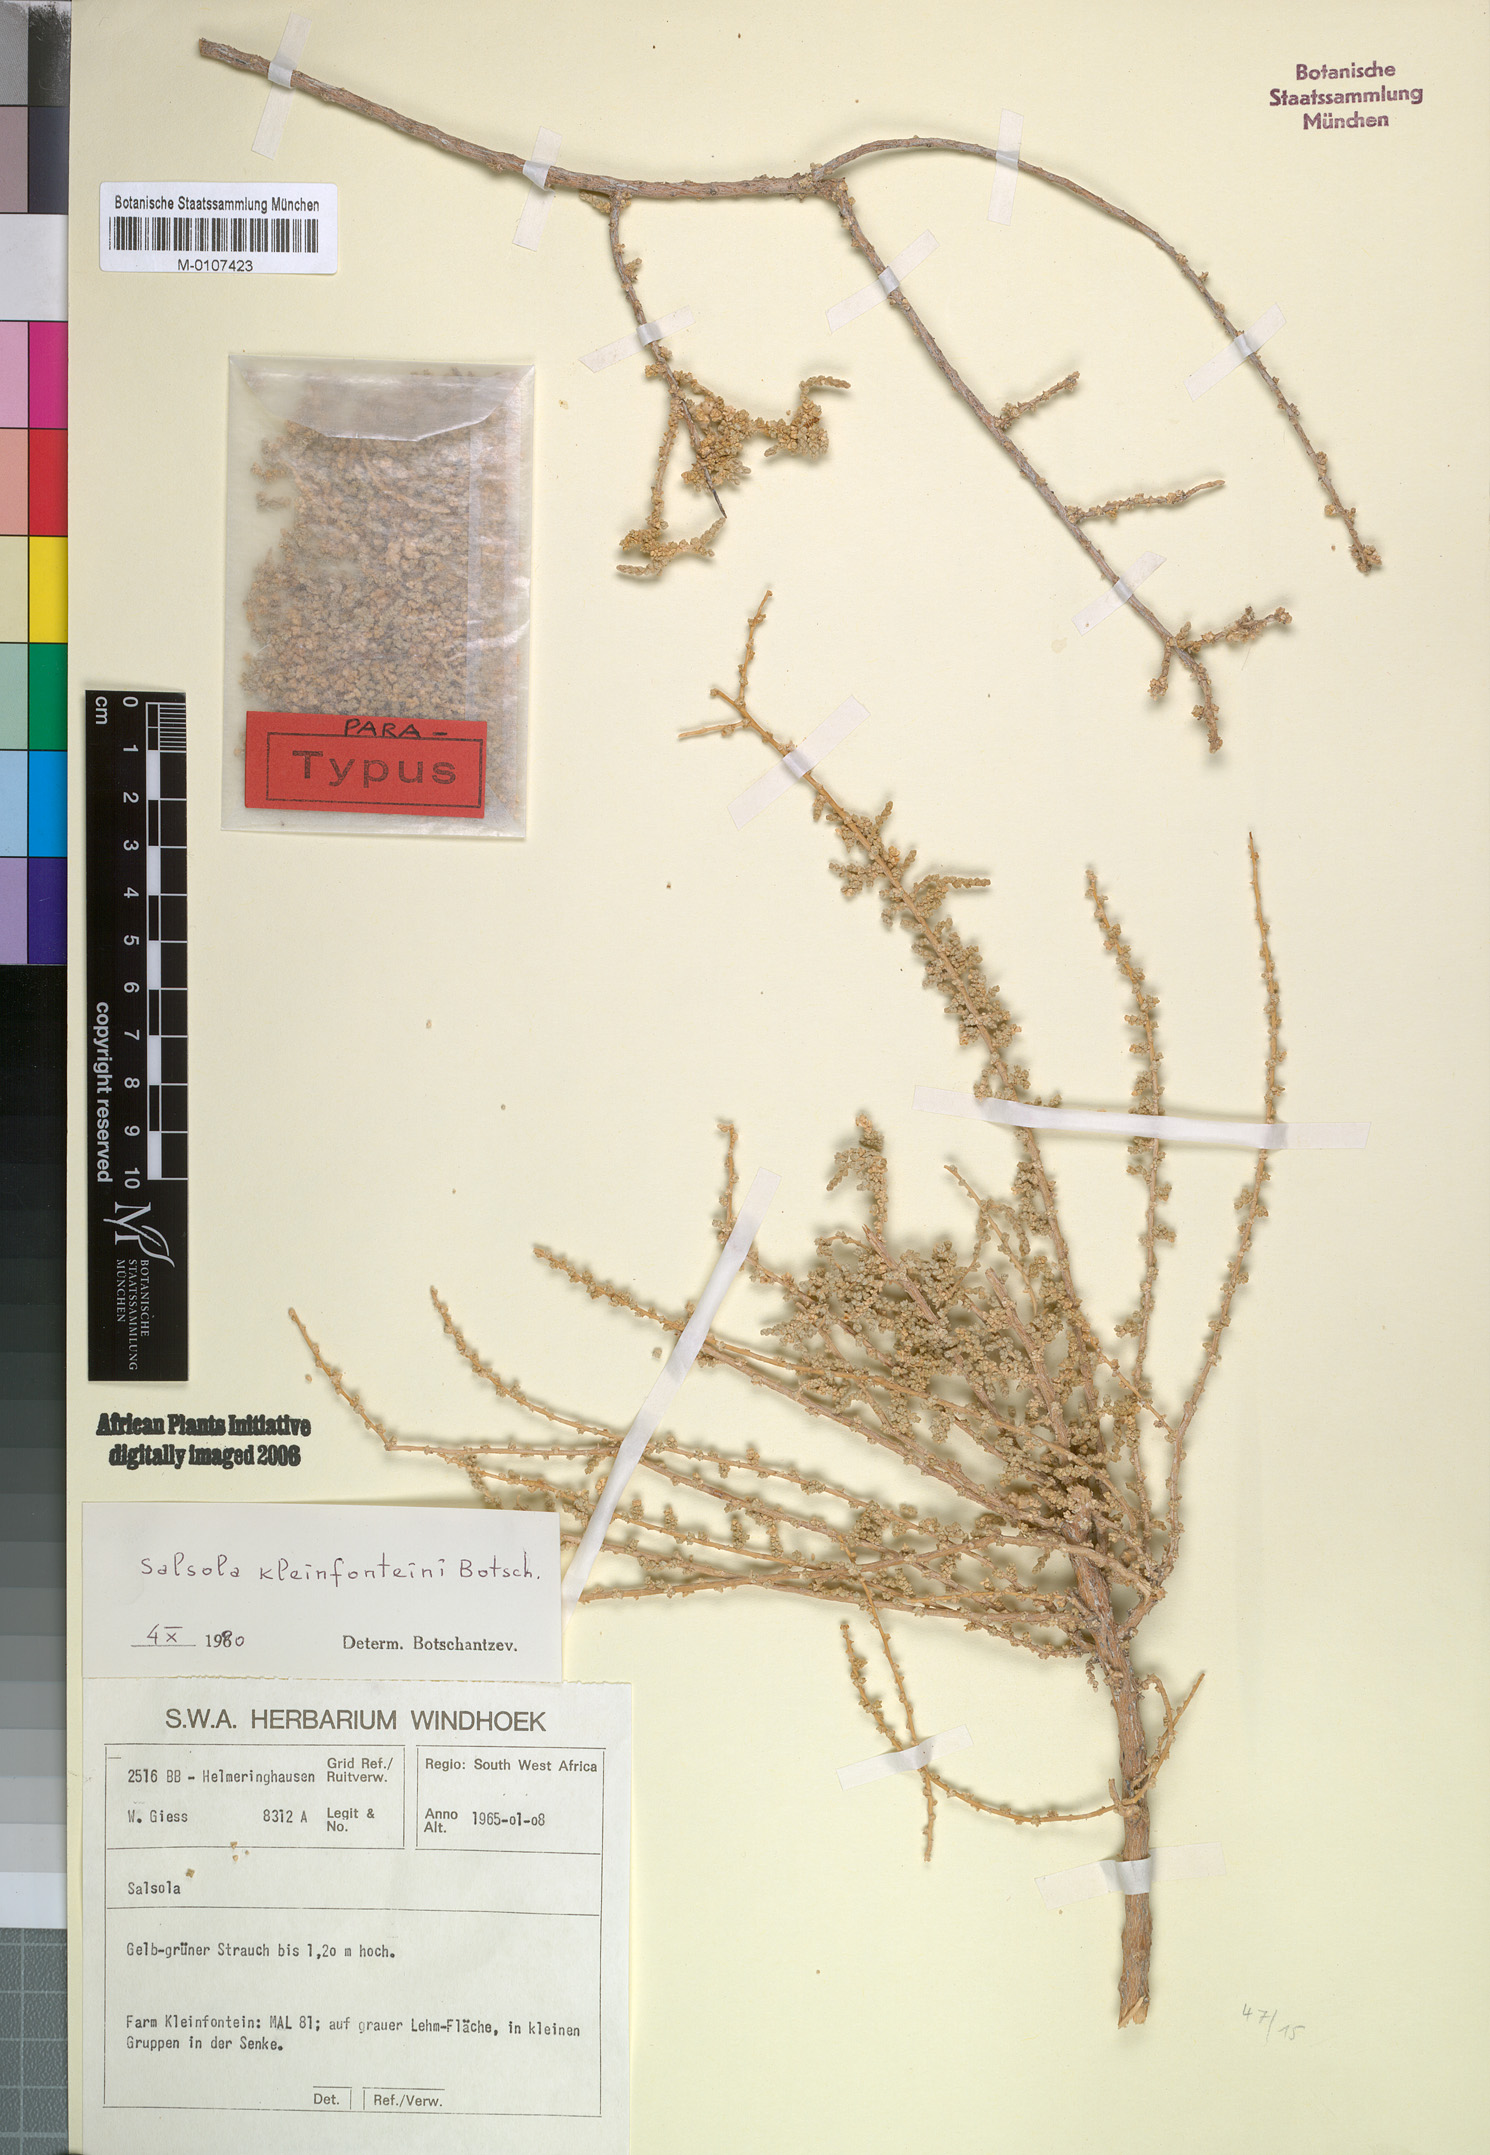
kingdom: Plantae
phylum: Tracheophyta
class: Magnoliopsida
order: Caryophyllales
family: Amaranthaceae
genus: Caroxylon
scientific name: Caroxylon kleinfonteini
